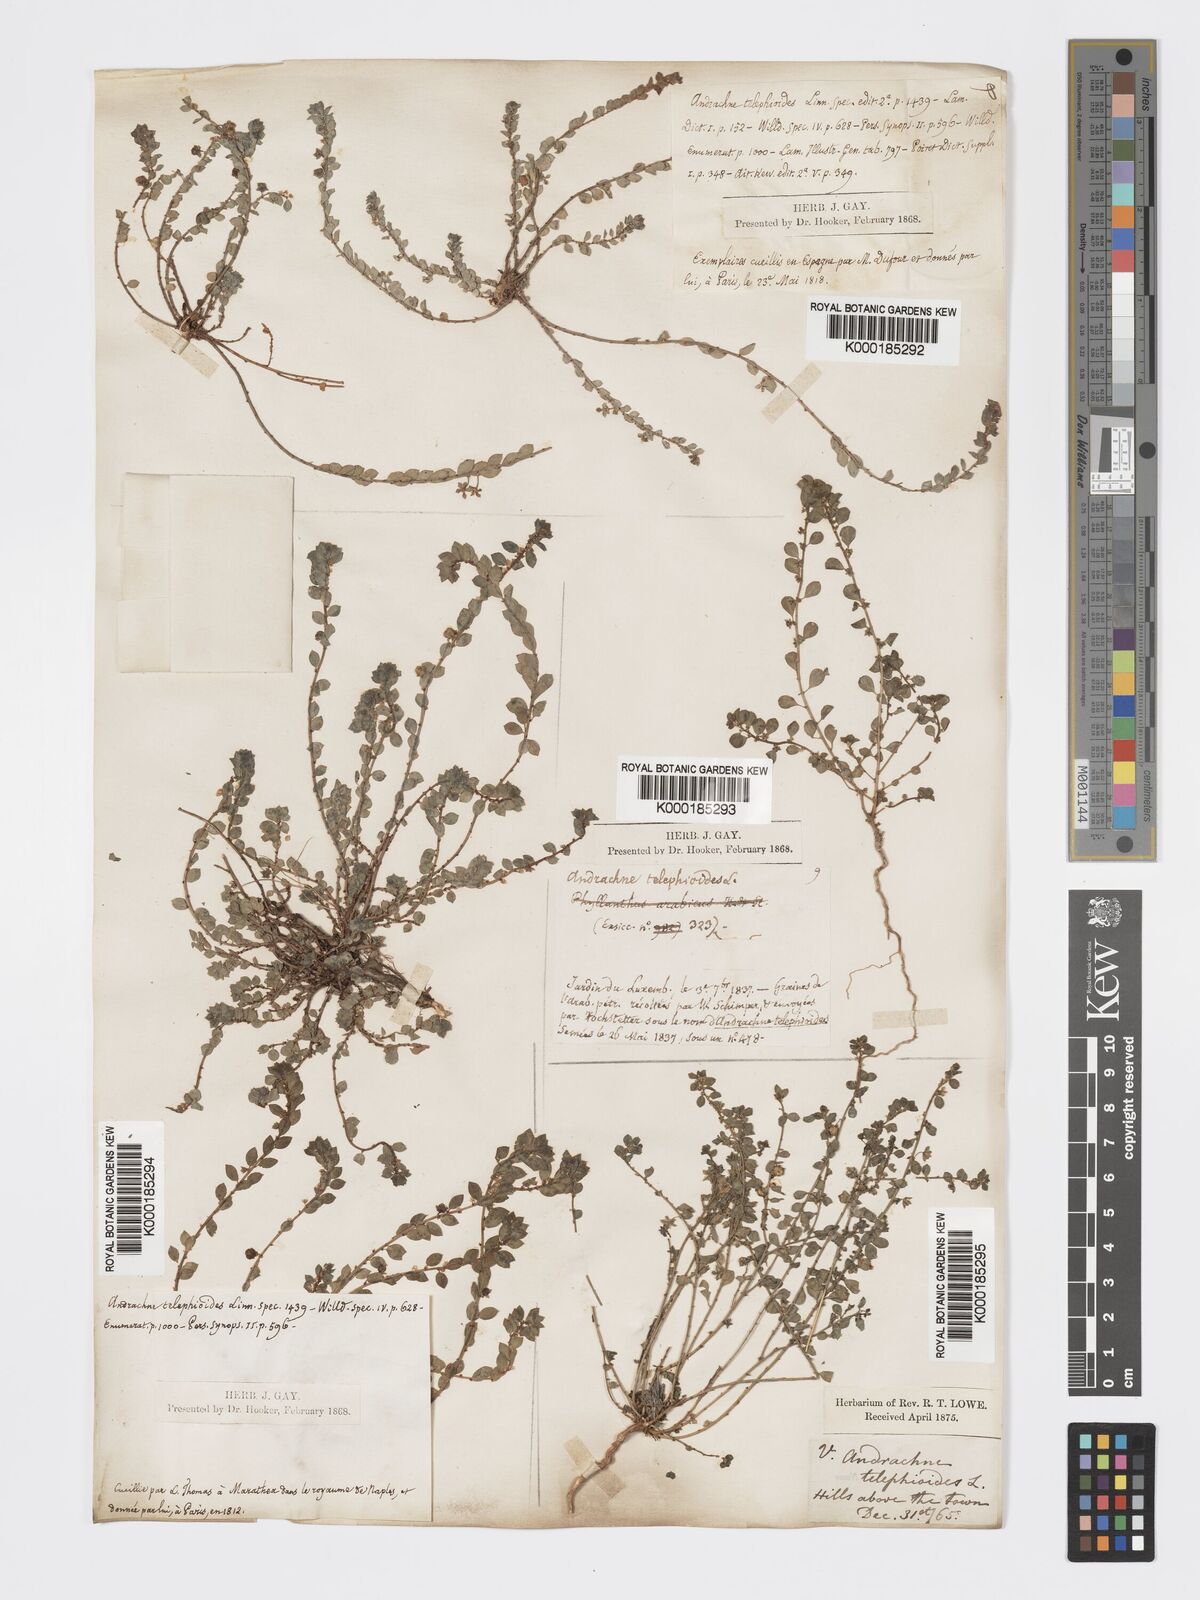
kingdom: Plantae
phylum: Tracheophyta
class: Magnoliopsida
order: Malpighiales
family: Phyllanthaceae
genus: Andrachne
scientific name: Andrachne telephioides
